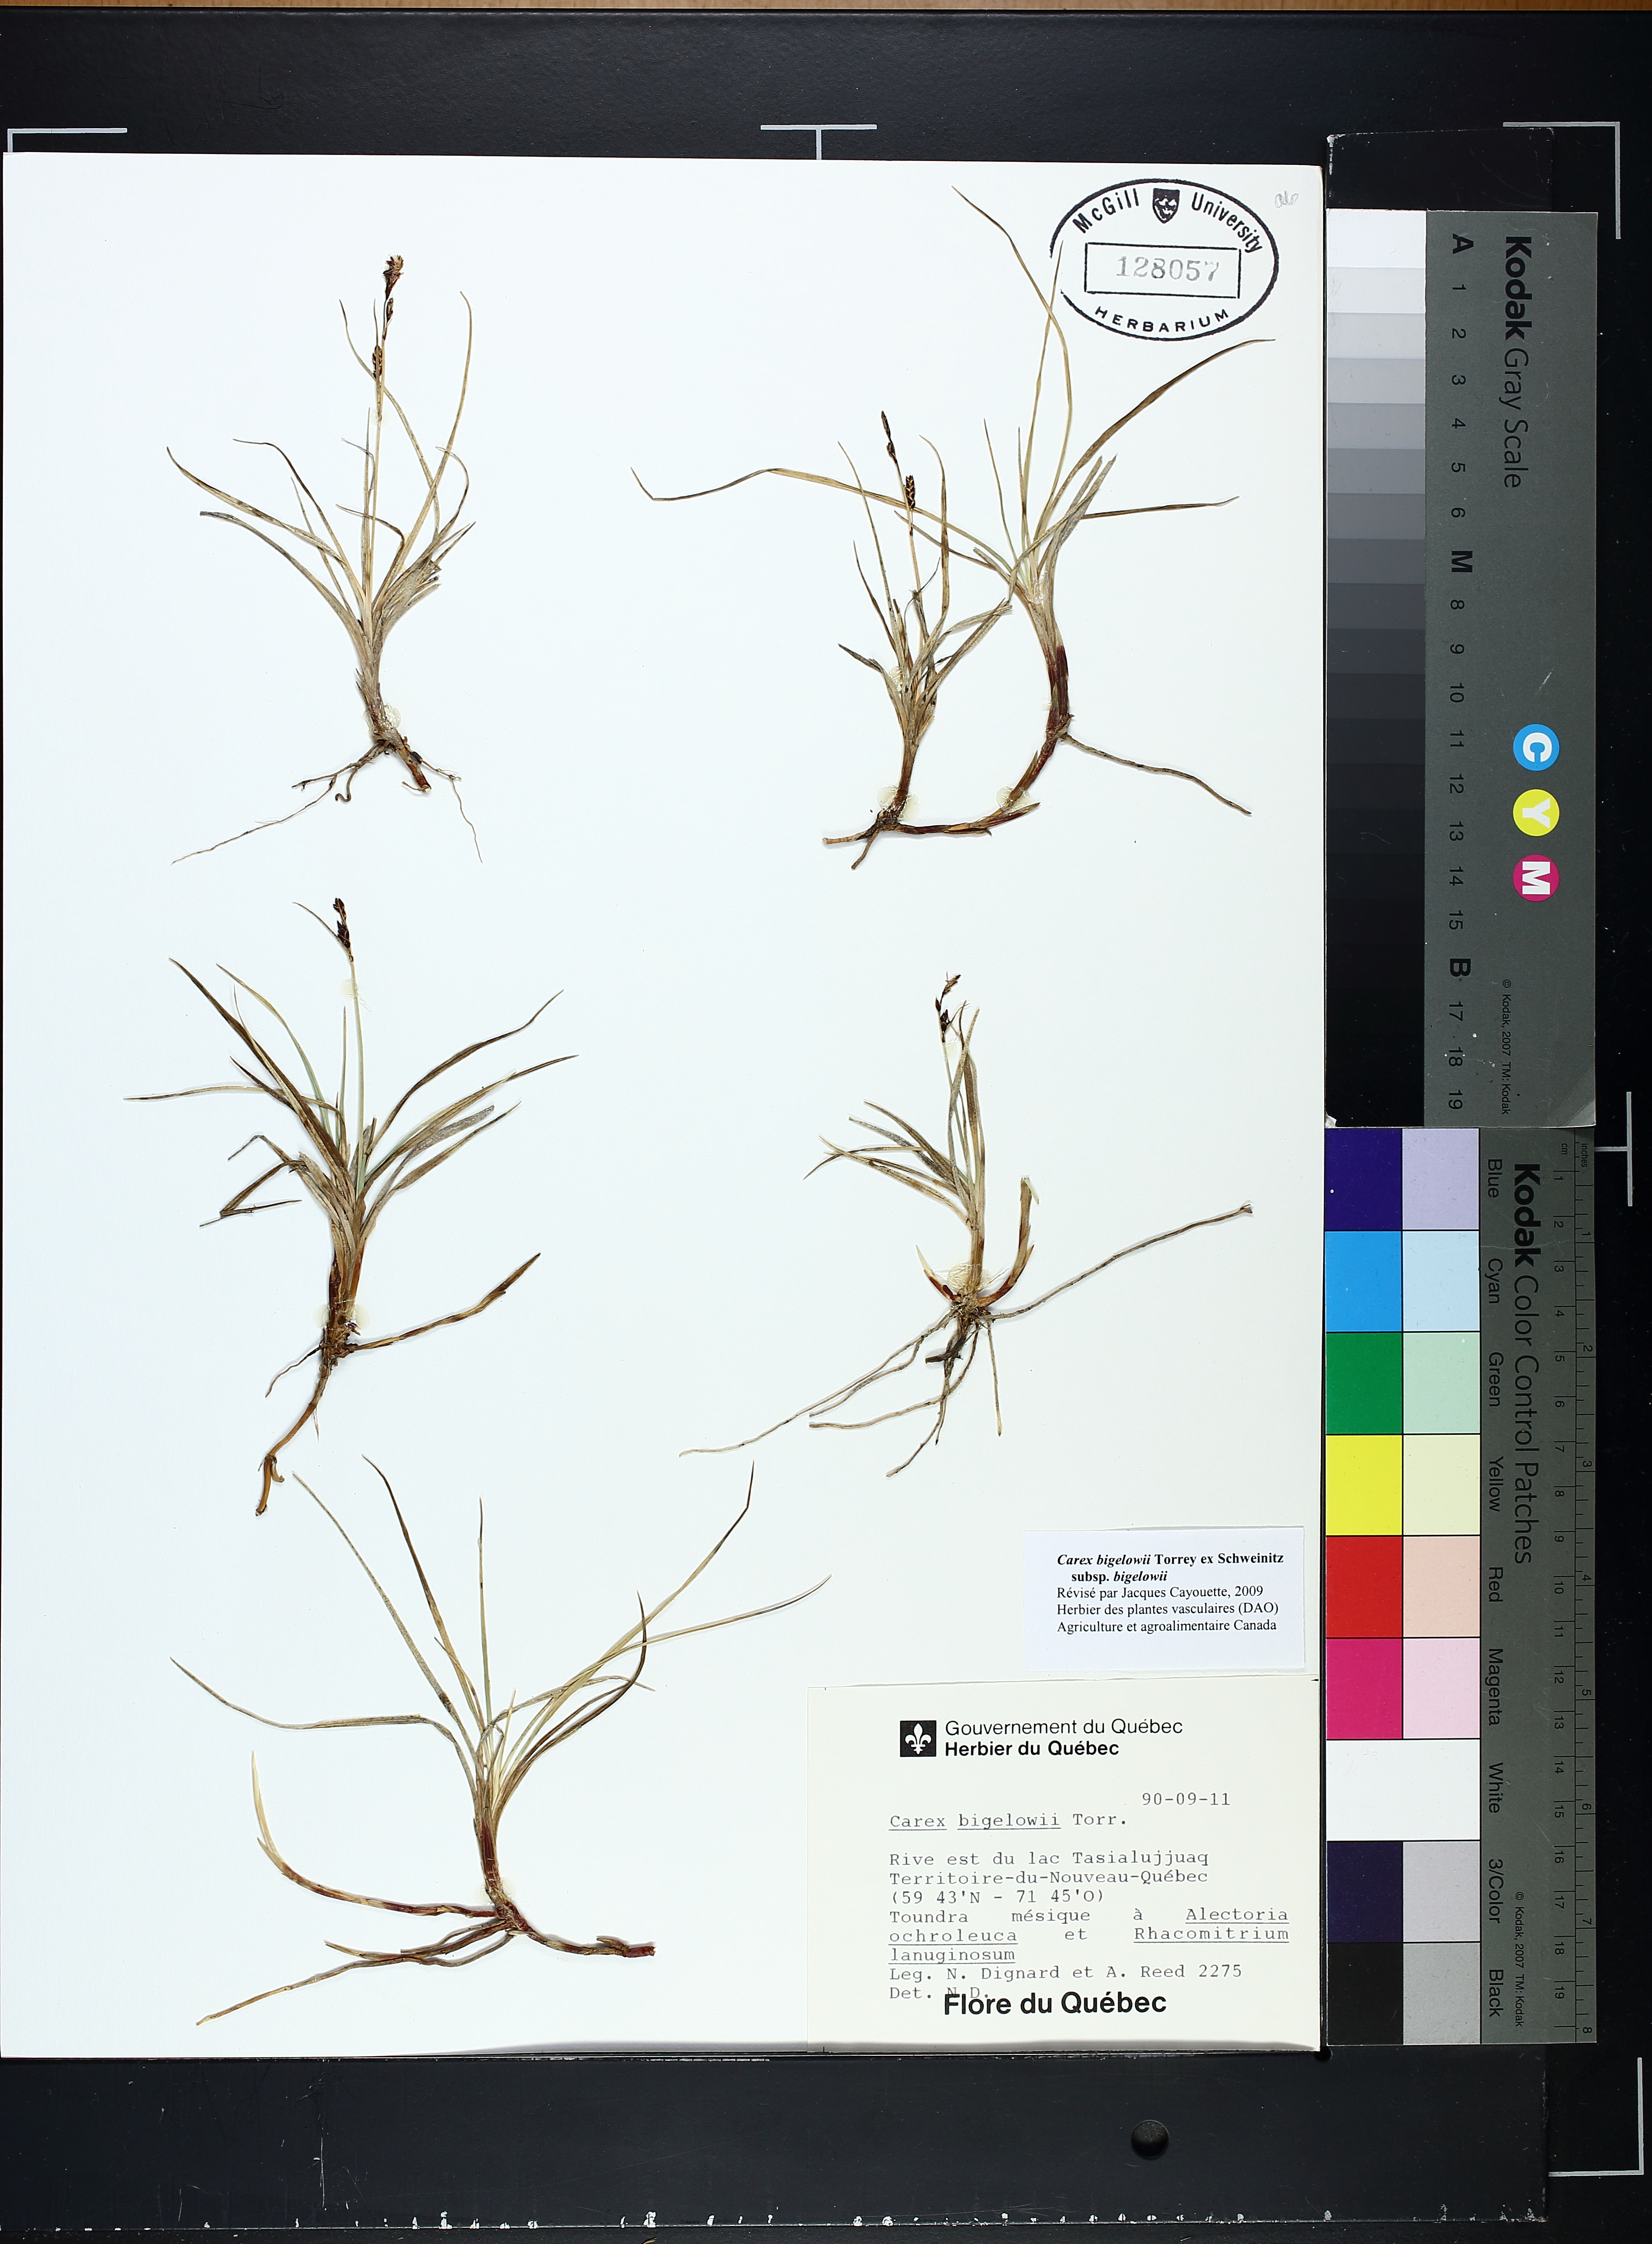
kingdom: Plantae
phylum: Tracheophyta
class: Liliopsida
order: Poales
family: Cyperaceae
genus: Carex
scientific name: Carex bigelowii
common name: Stiff sedge
